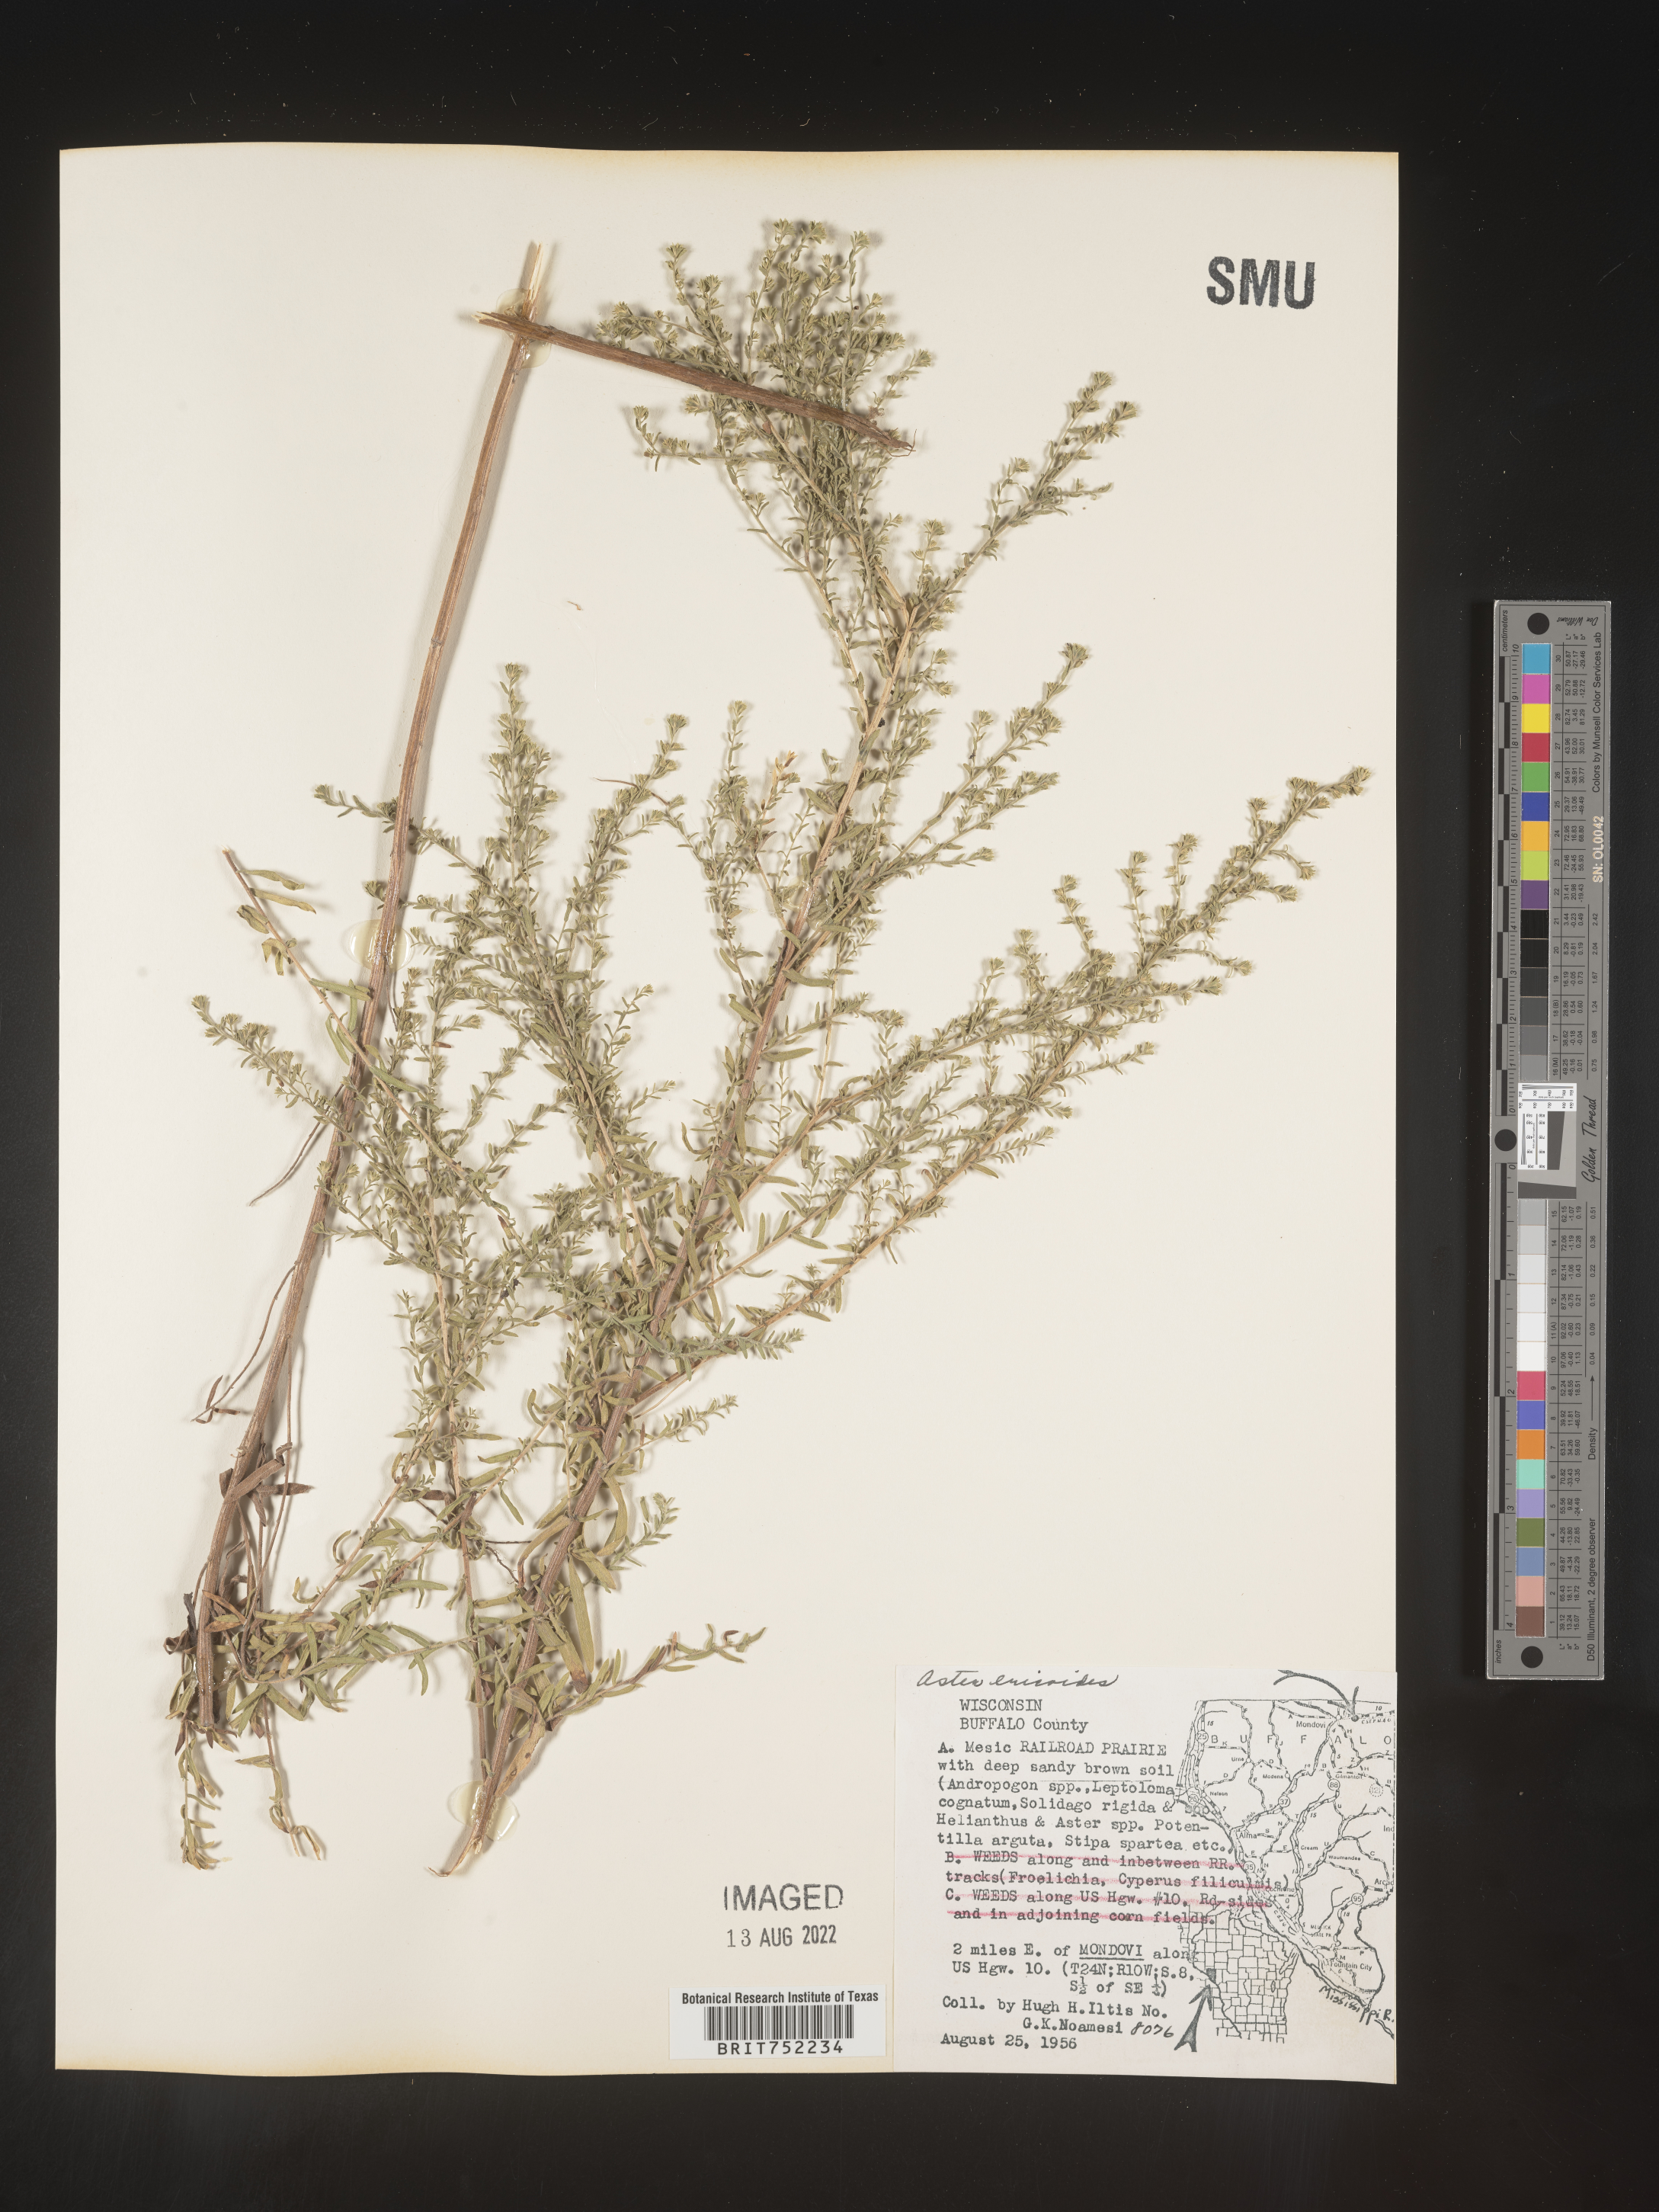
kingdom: Plantae
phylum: Tracheophyta
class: Magnoliopsida
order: Asterales
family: Asteraceae
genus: Symphyotrichum
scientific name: Symphyotrichum ericoides
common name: Heath aster
